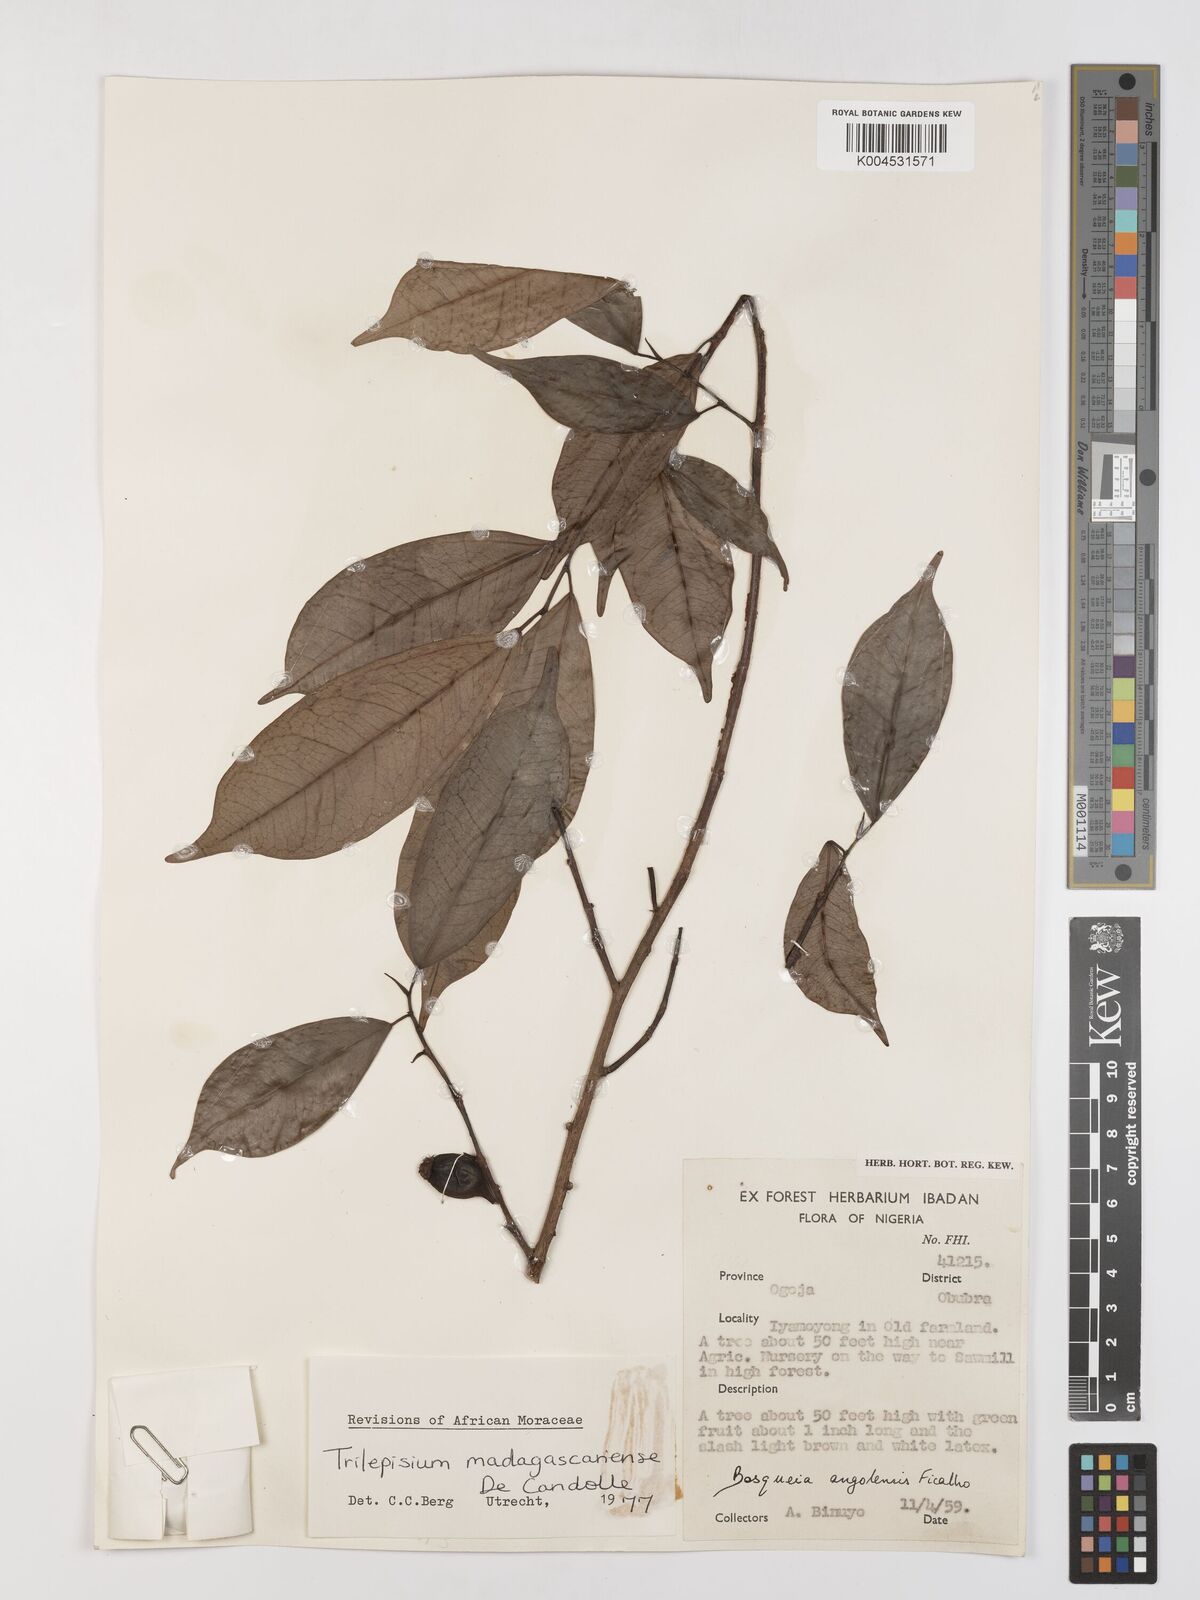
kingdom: Plantae
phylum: Tracheophyta
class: Magnoliopsida
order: Rosales
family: Moraceae
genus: Trilepisium
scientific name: Trilepisium madagascariense
